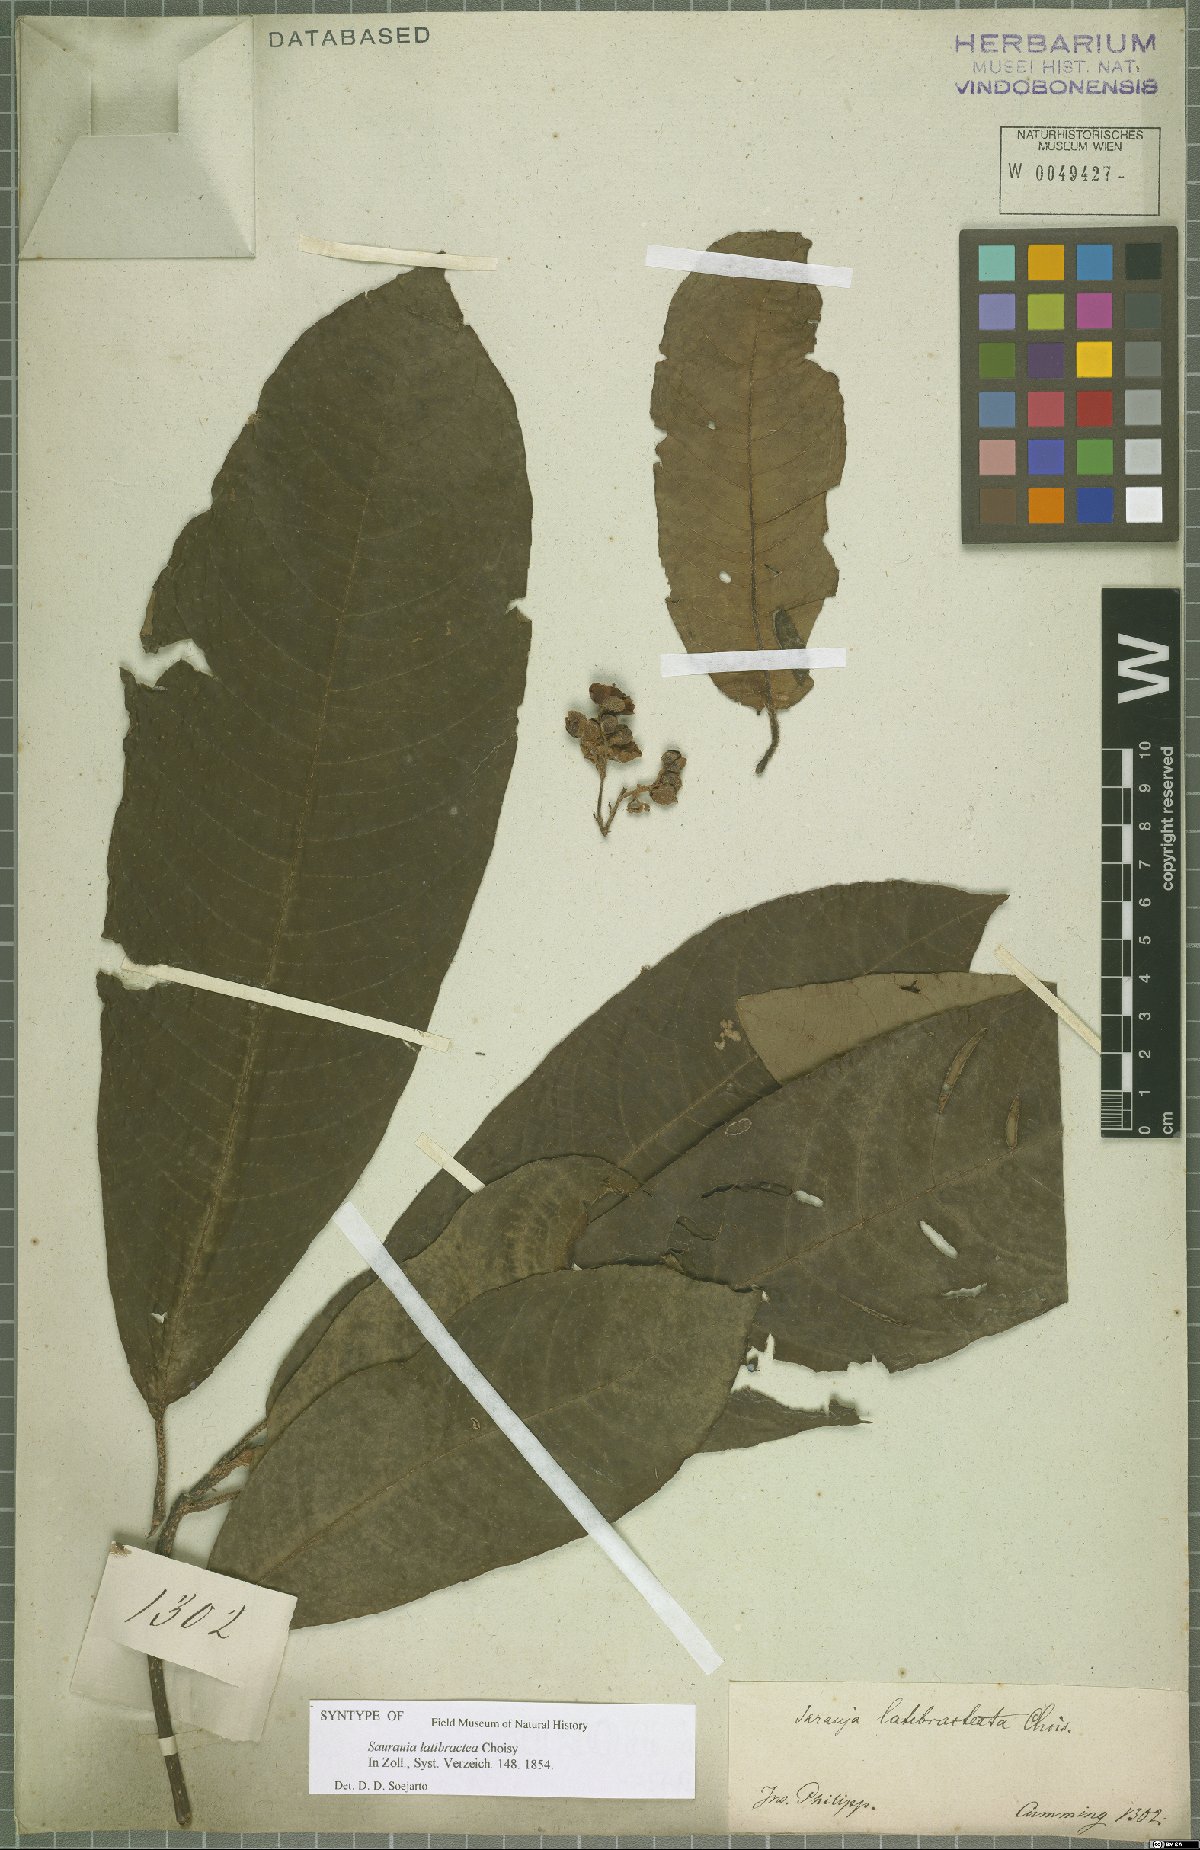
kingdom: Plantae
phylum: Tracheophyta
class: Magnoliopsida
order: Ericales
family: Actinidiaceae
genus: Saurauia
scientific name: Saurauia latibractea
